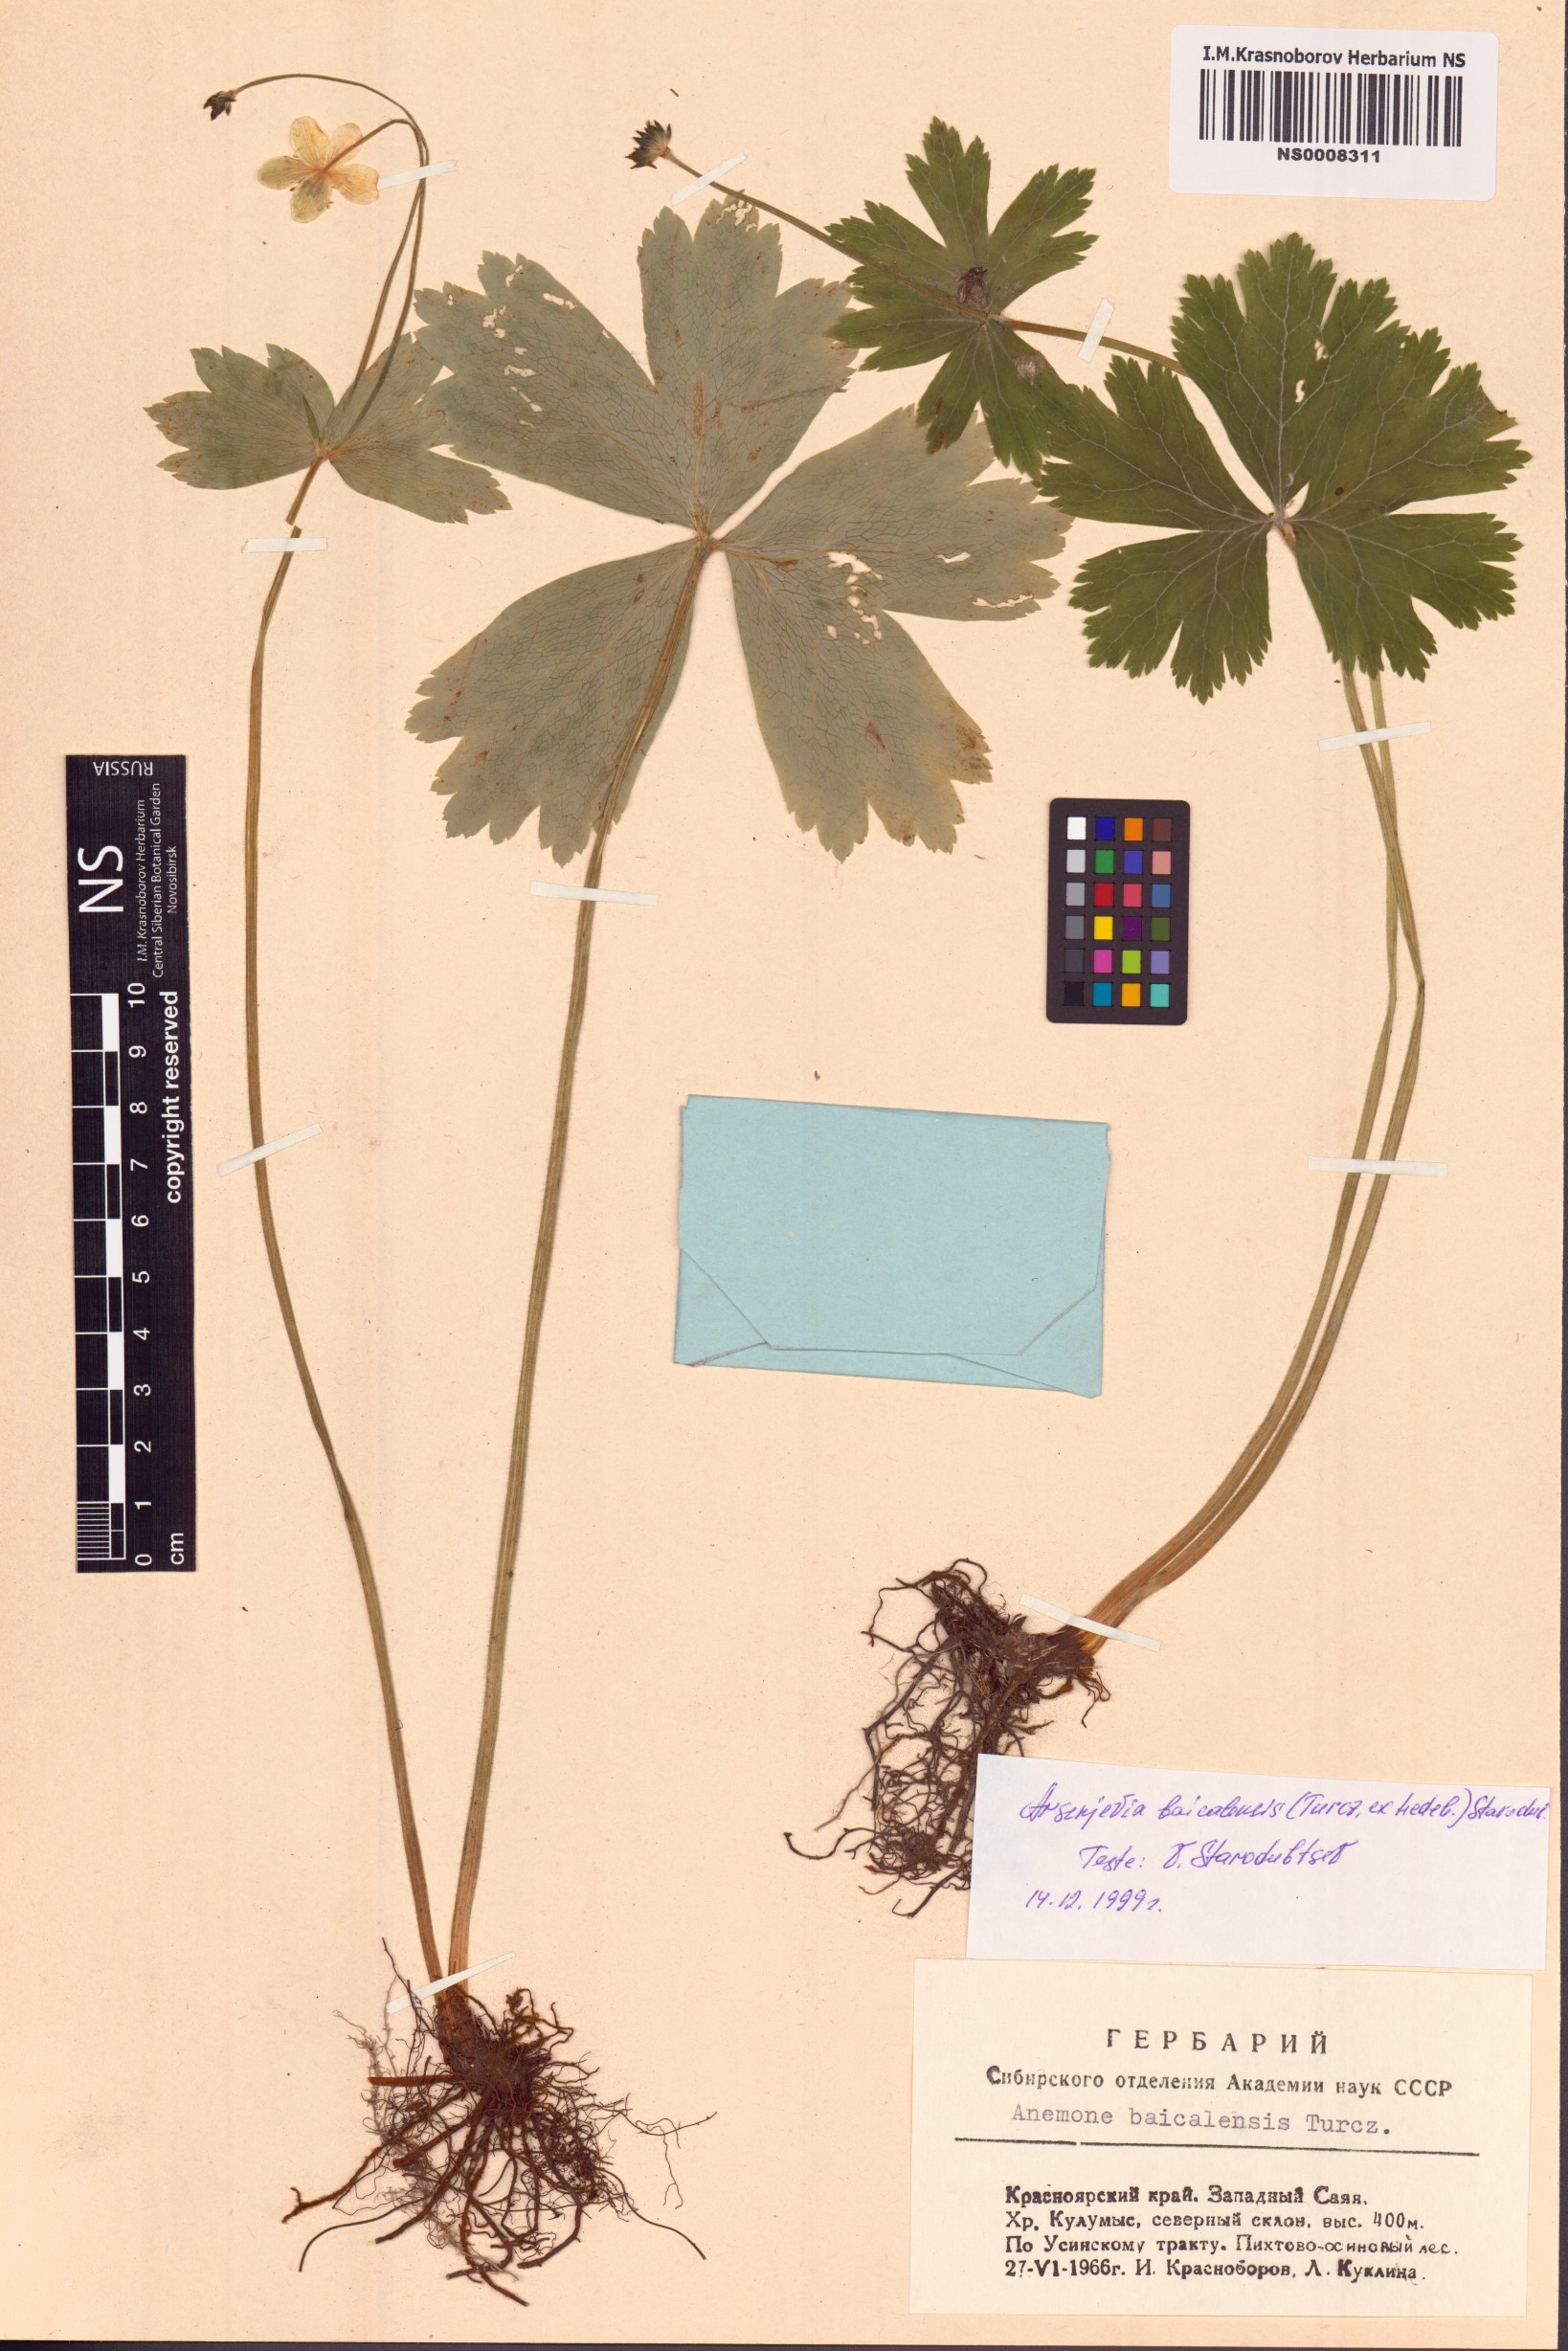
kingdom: Plantae
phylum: Tracheophyta
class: Magnoliopsida
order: Ranunculales
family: Ranunculaceae
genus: Anemonastrum
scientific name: Anemonastrum baicalense
